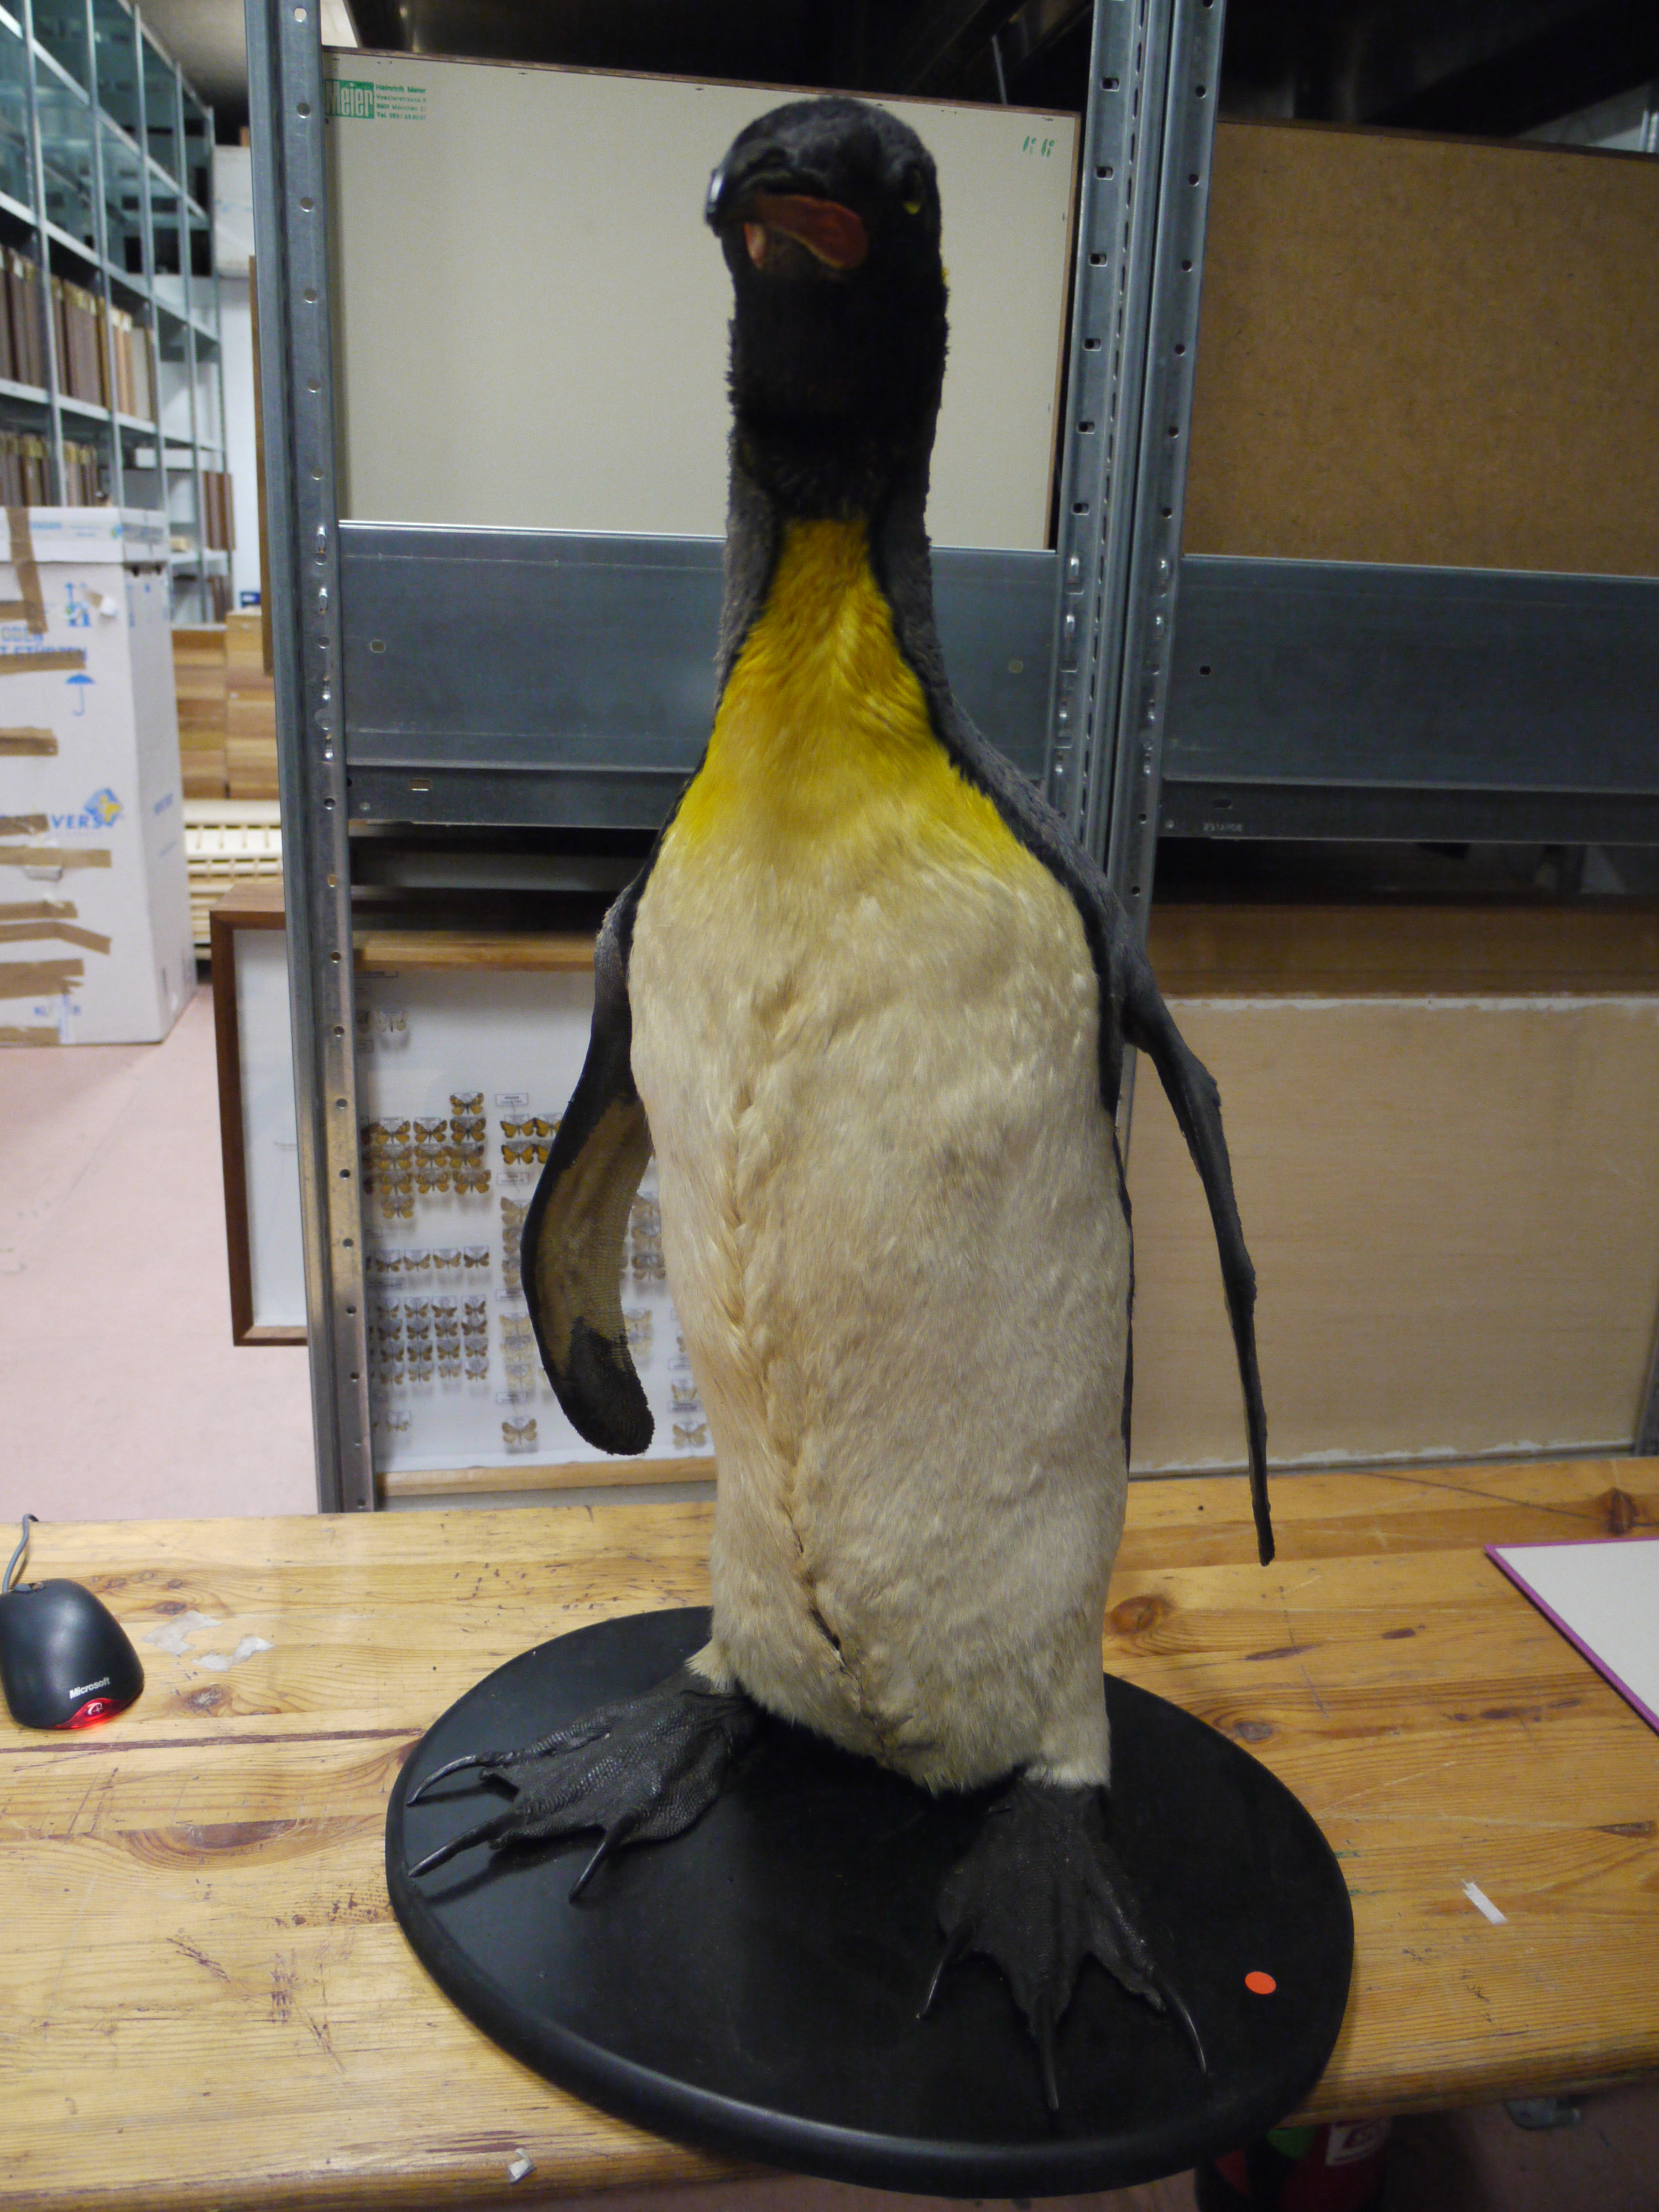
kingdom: Animalia
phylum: Chordata
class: Aves
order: Sphenisciformes
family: Spheniscidae
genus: Aptenodytes
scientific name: Aptenodytes patagonicus
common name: King penguin
